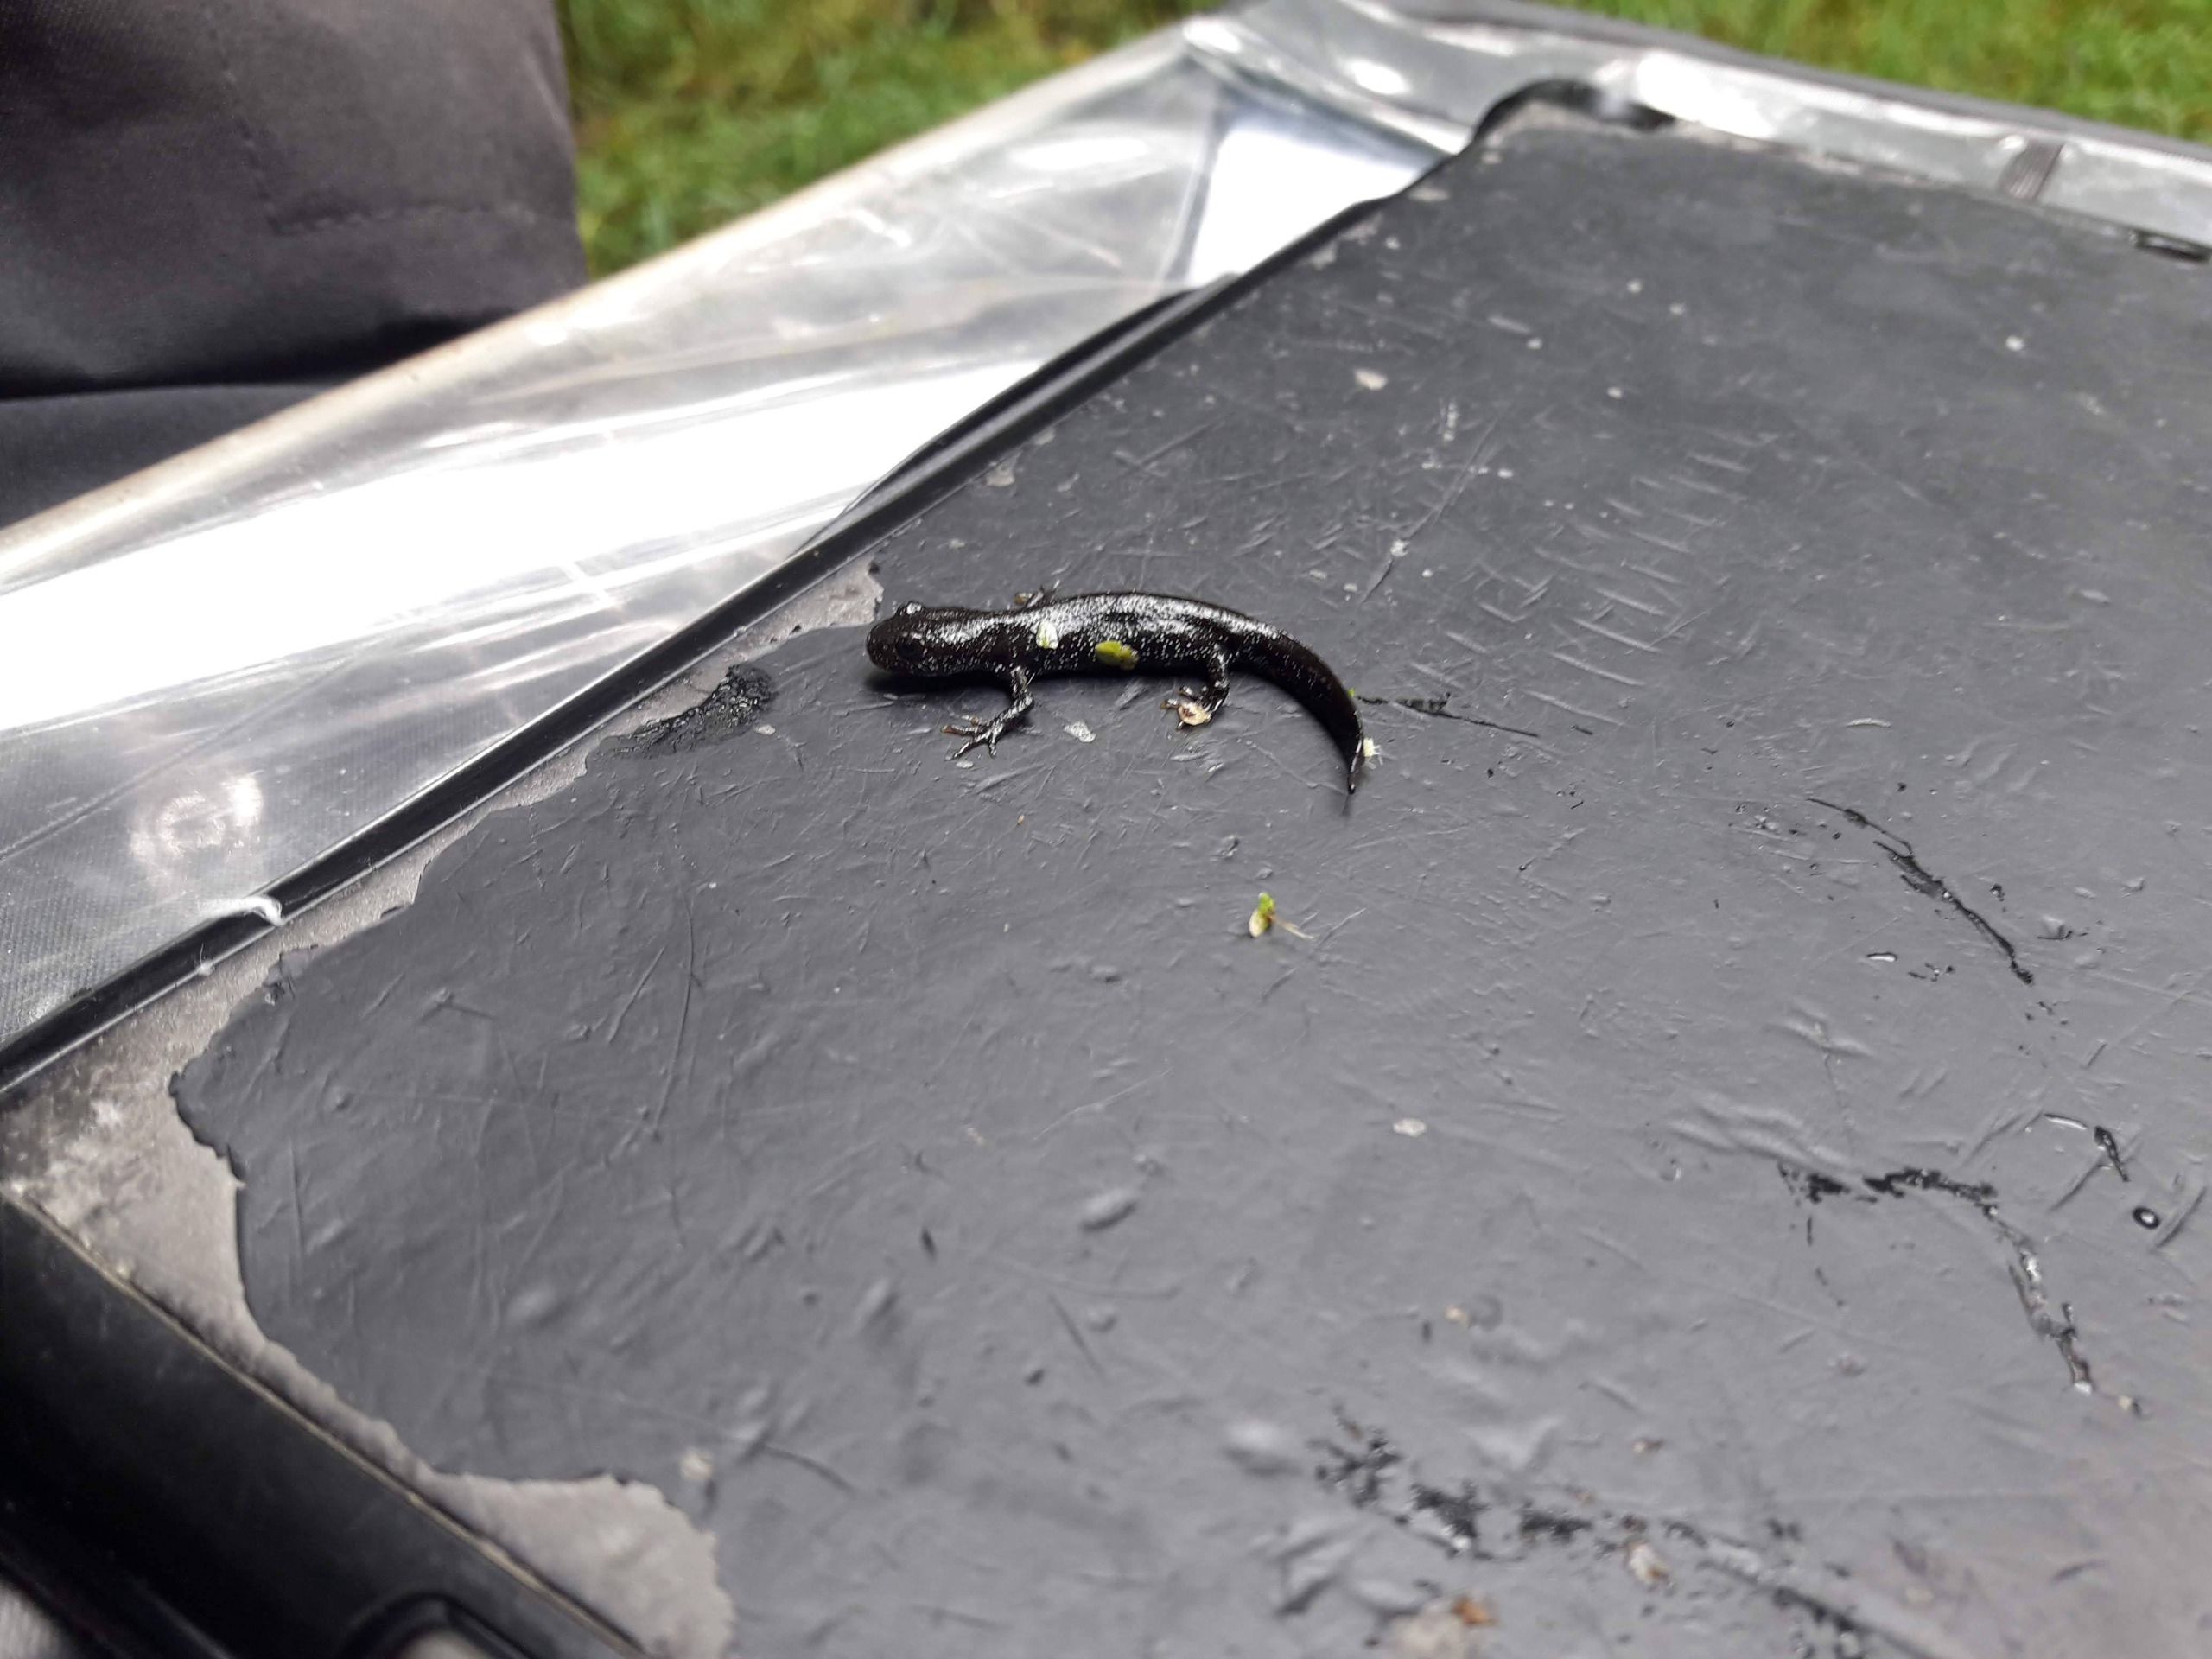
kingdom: Animalia
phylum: Chordata
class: Amphibia
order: Caudata
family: Salamandridae
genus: Triturus
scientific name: Triturus cristatus
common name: Stor vandsalamander
